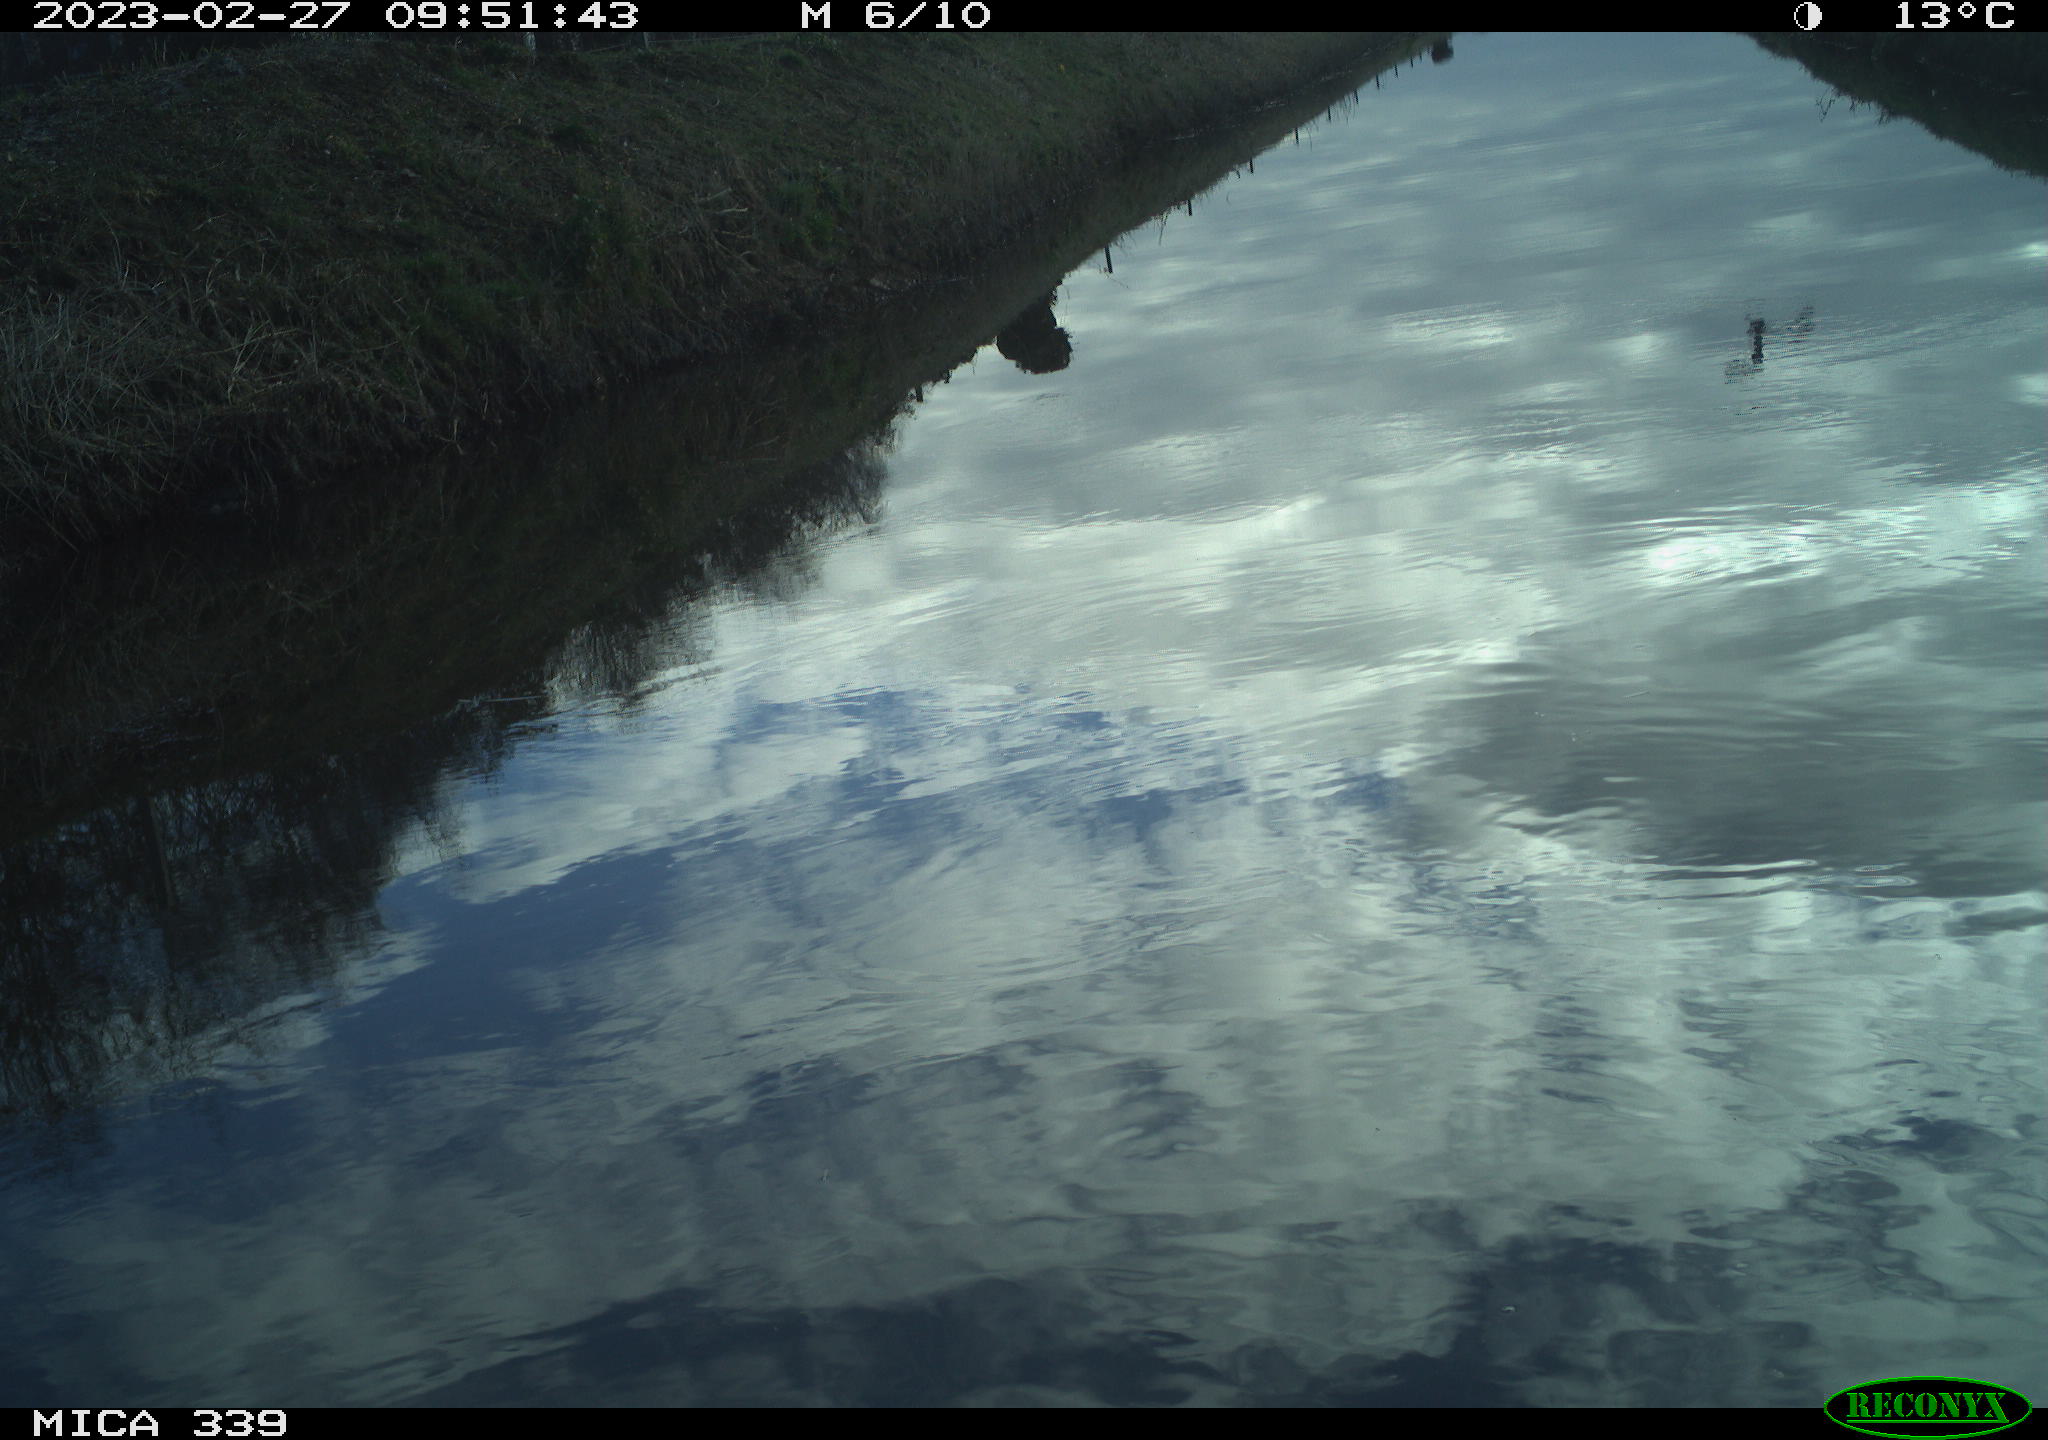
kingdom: Animalia
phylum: Chordata
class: Aves
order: Pelecaniformes
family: Ardeidae
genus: Ardea
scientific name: Ardea cinerea
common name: Grey heron
